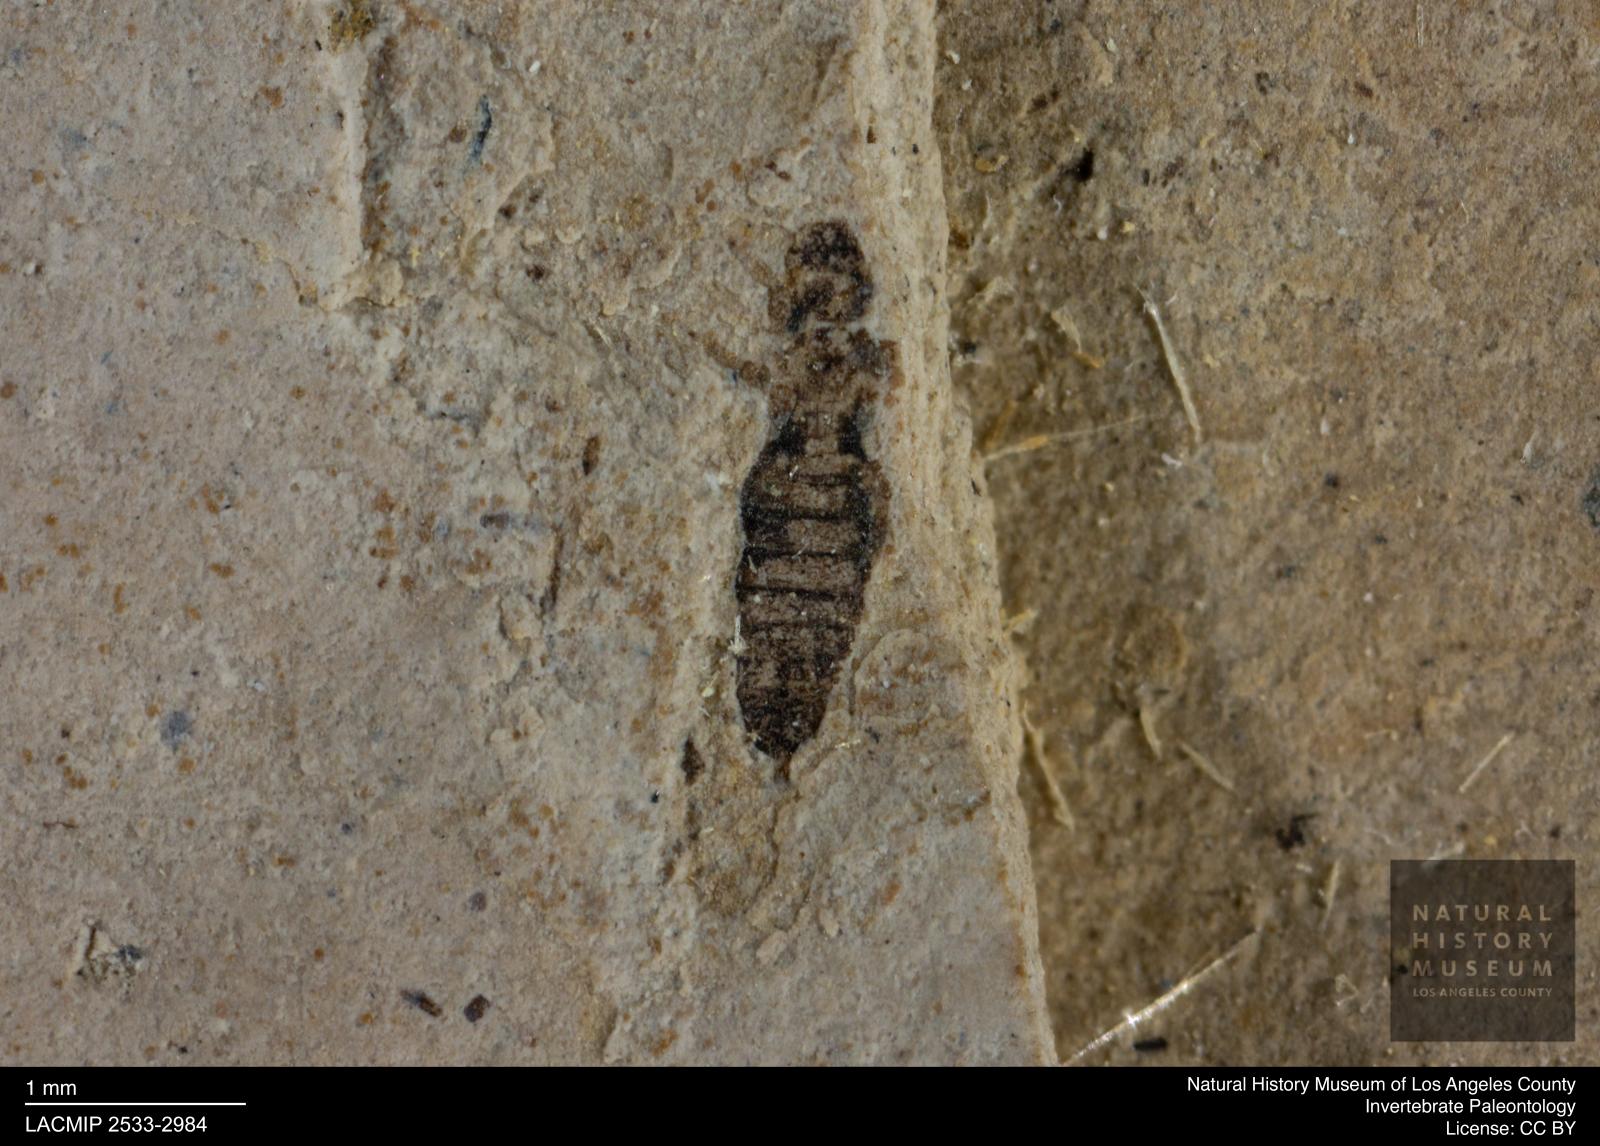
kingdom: Animalia
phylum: Arthropoda
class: Insecta
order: Thysanoptera
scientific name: Thysanoptera
